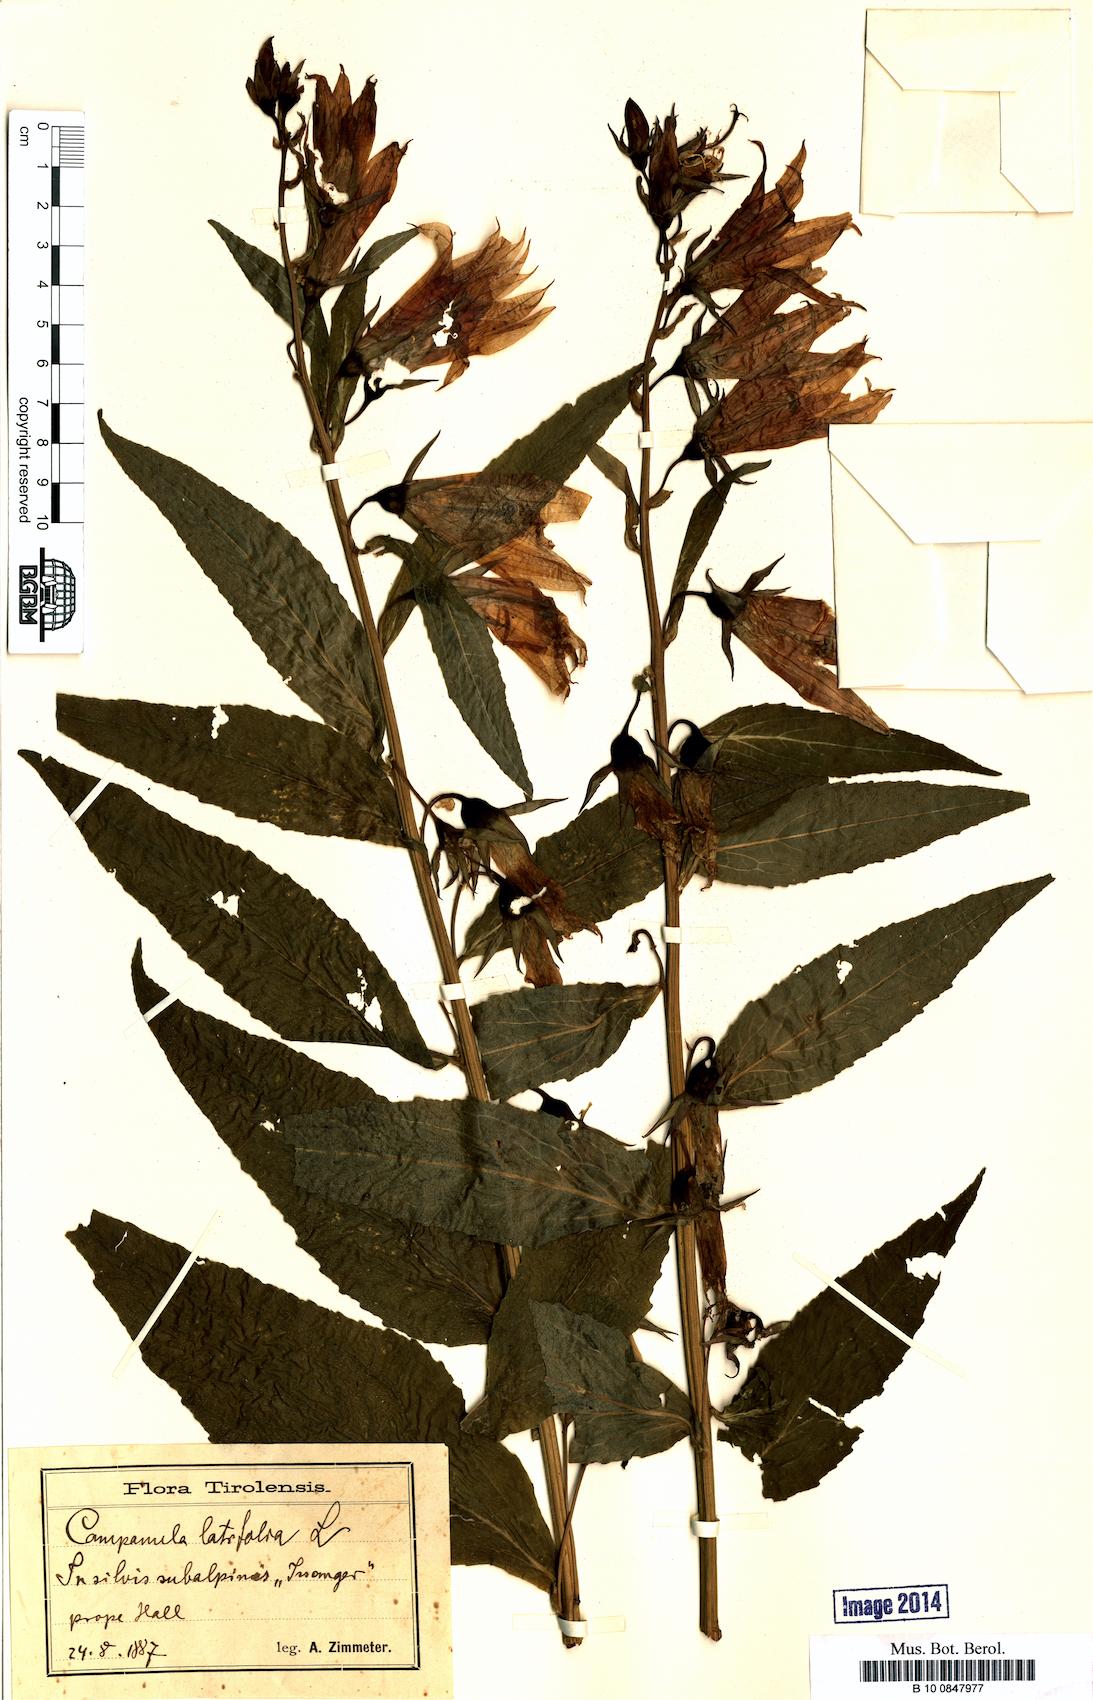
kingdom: Plantae
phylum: Tracheophyta
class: Magnoliopsida
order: Asterales
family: Campanulaceae
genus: Campanula
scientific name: Campanula latifolia
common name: Giant bellflower
